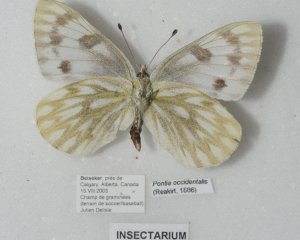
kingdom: Animalia
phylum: Arthropoda
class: Insecta
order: Lepidoptera
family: Pieridae
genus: Pontia
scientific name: Pontia occidentalis
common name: Western White
